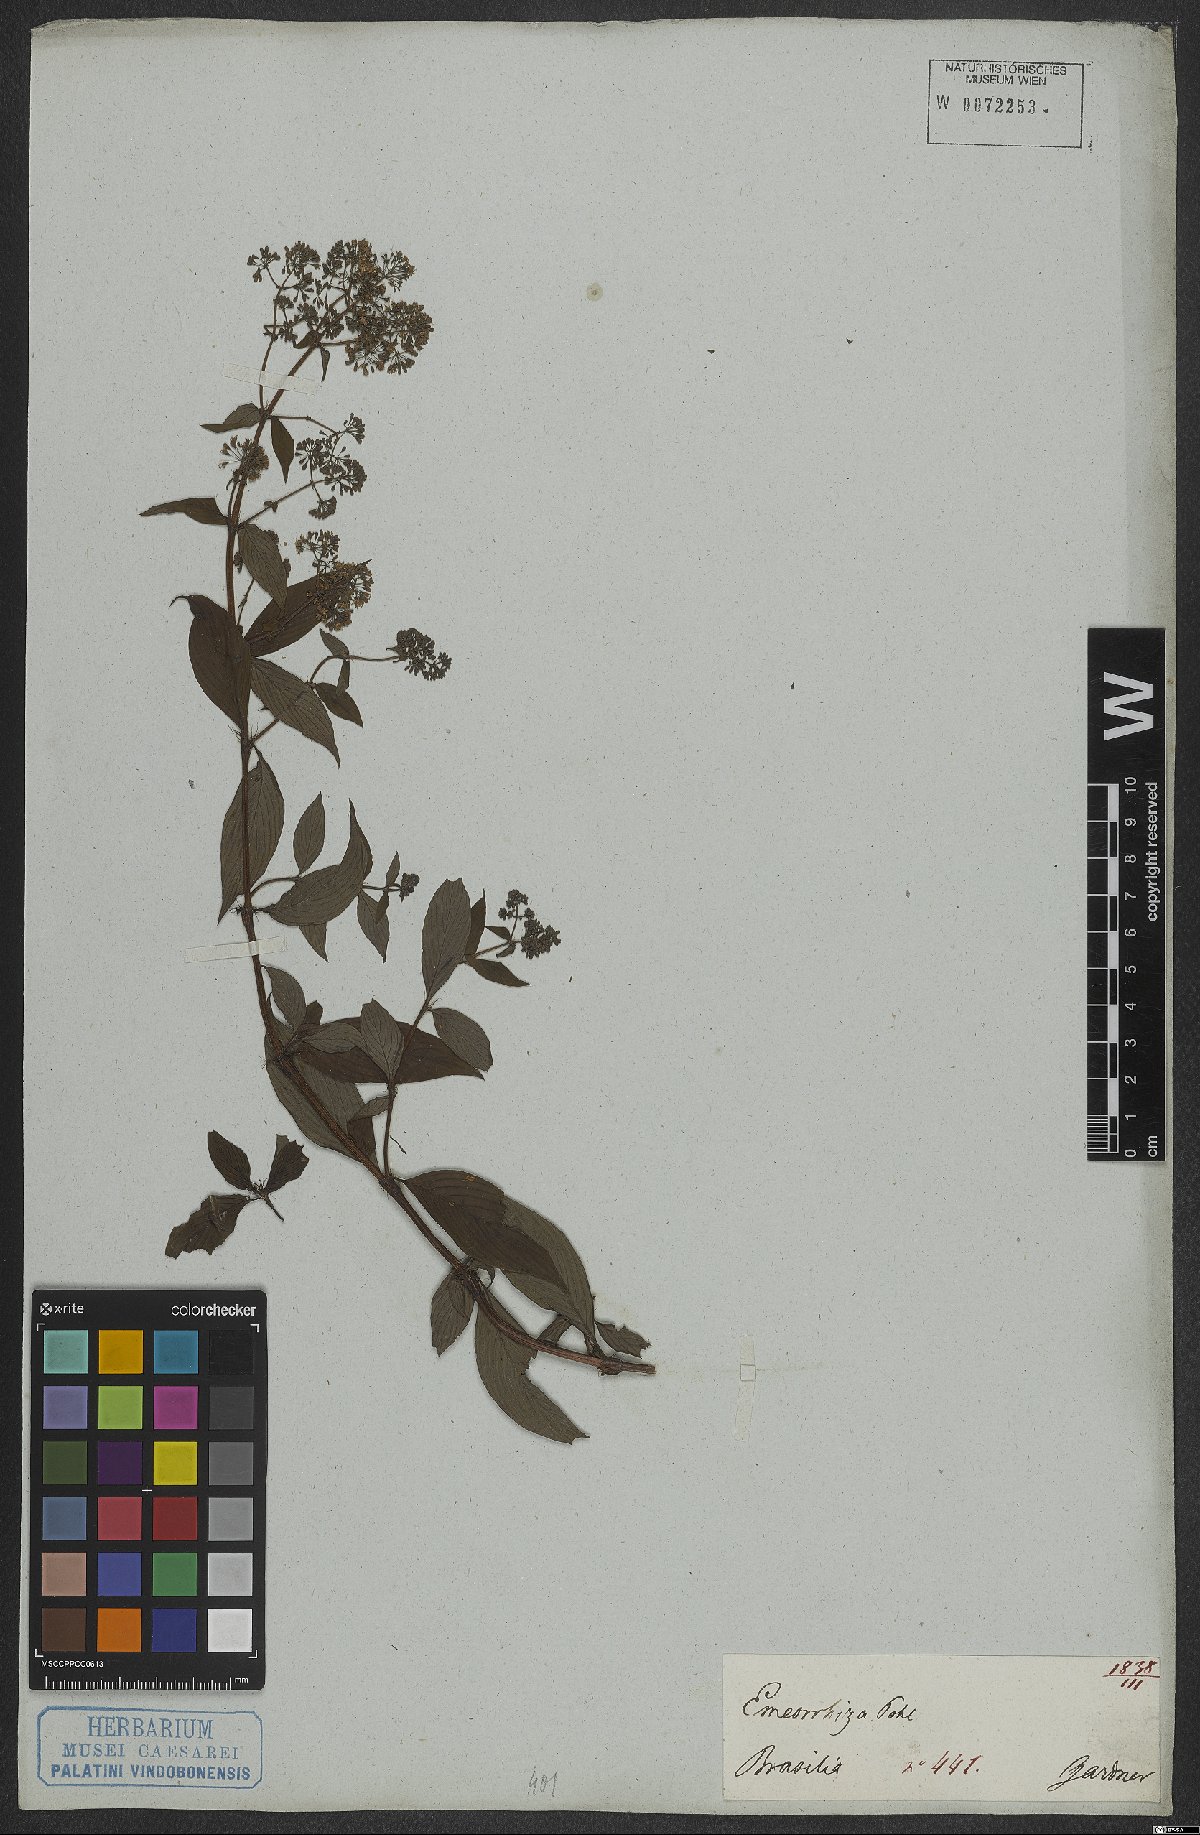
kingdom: Plantae
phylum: Tracheophyta
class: Magnoliopsida
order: Gentianales
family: Rubiaceae
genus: Emmeorhiza
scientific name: Emmeorhiza
